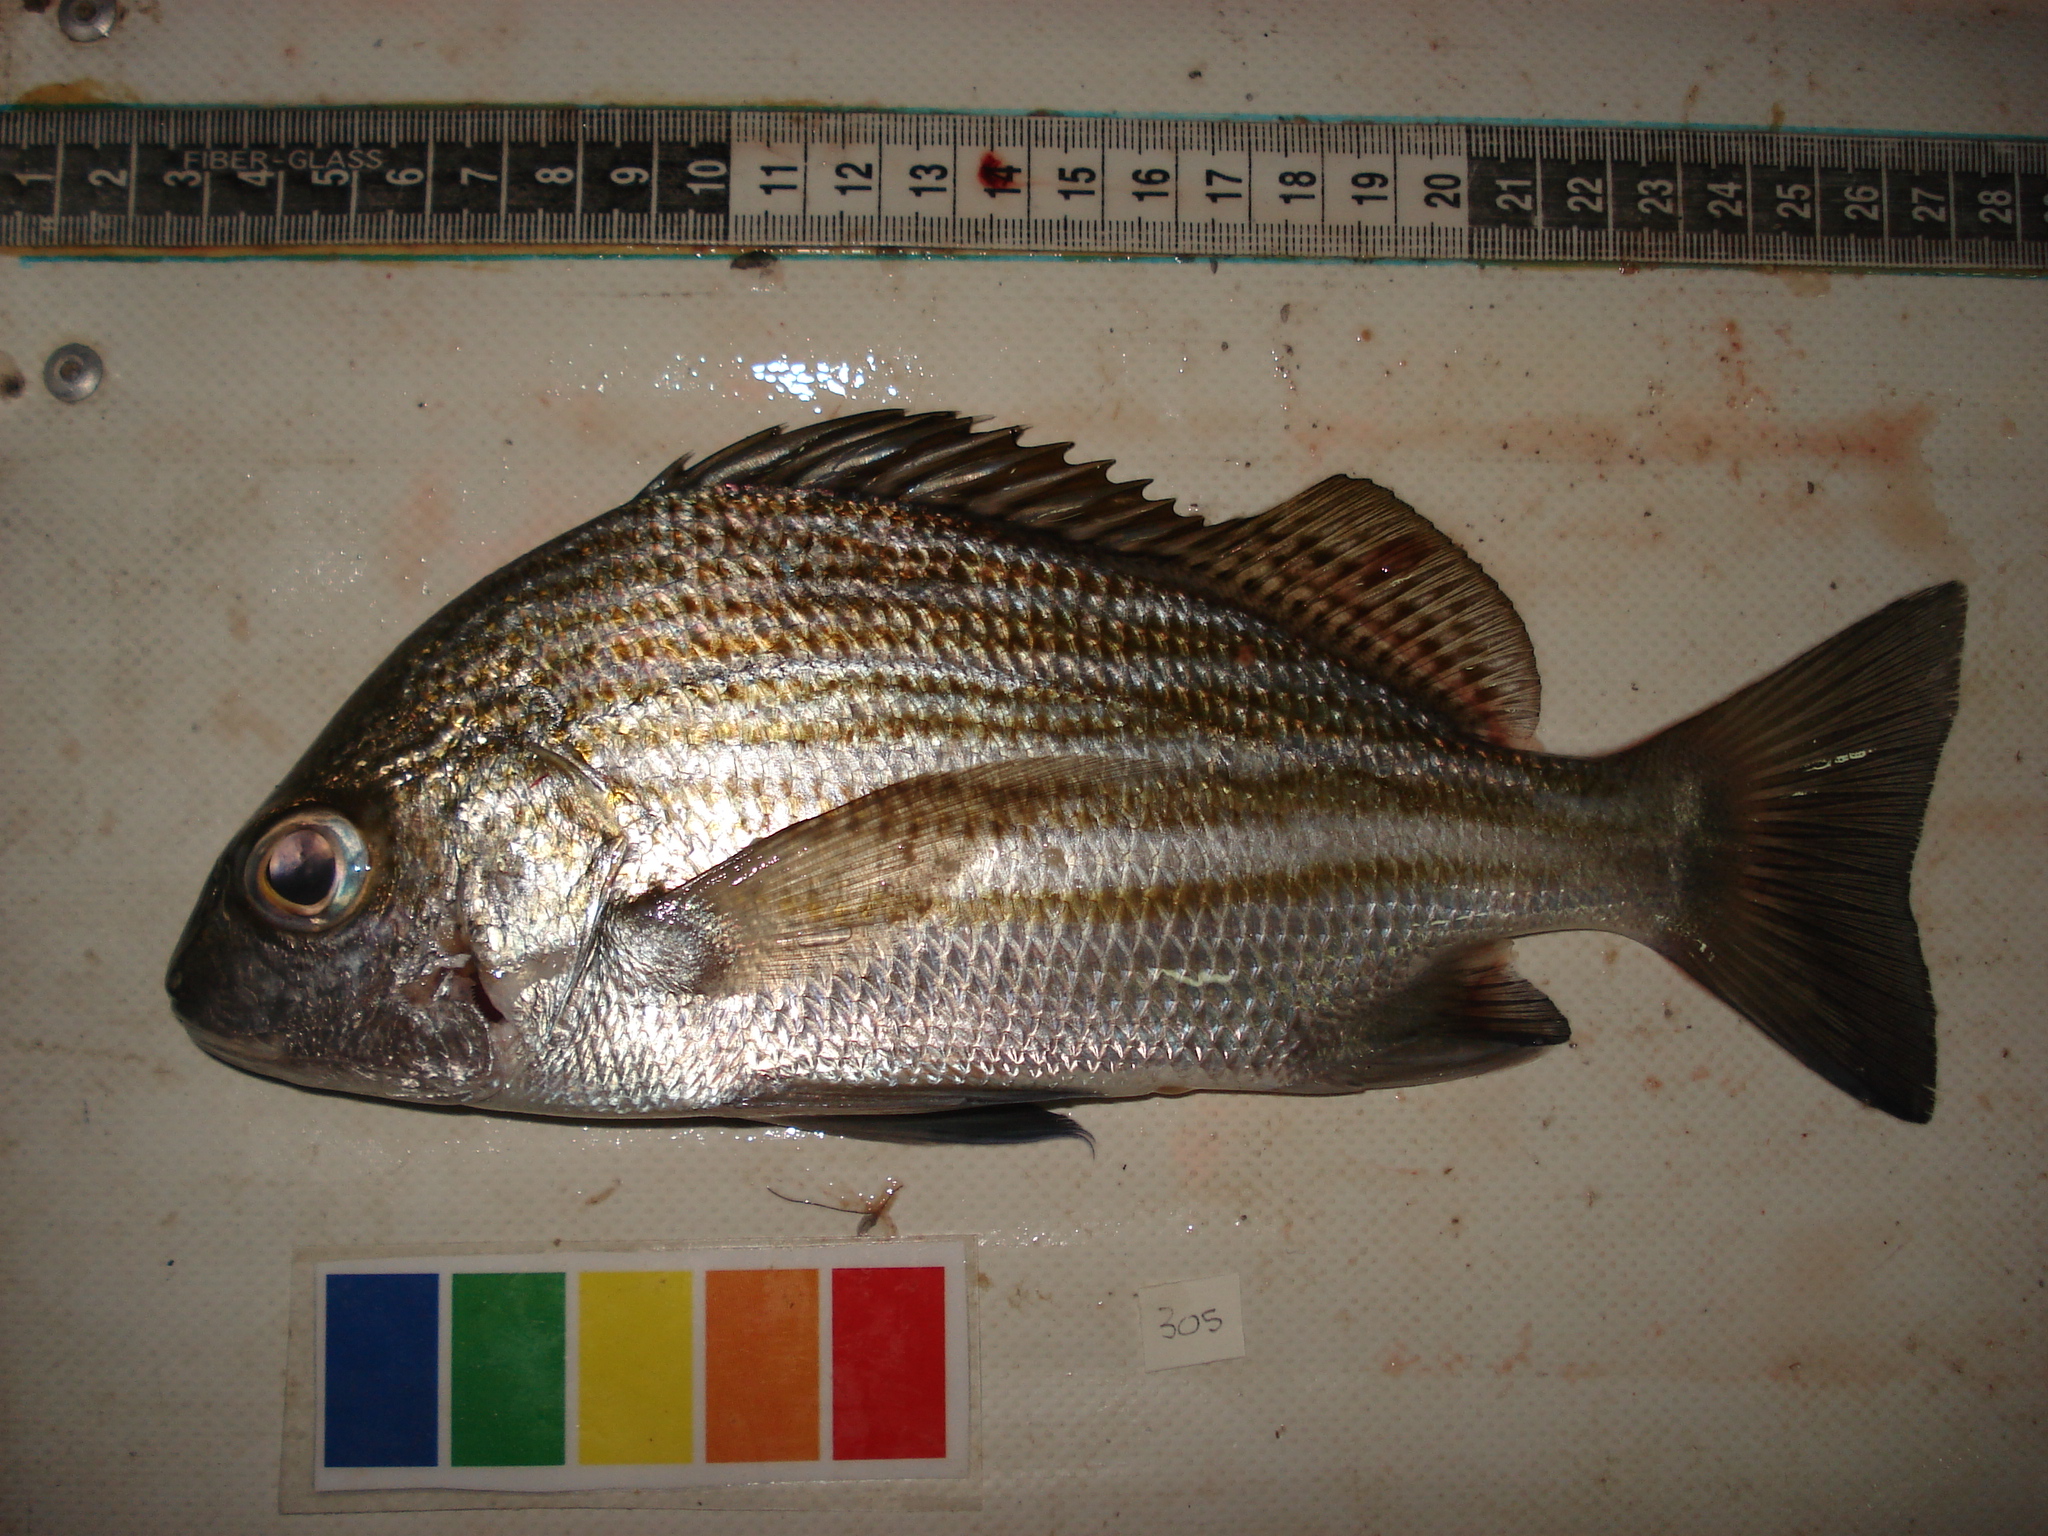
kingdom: Animalia
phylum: Chordata
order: Perciformes
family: Haemulidae
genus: Pomadasys
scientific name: Pomadasys furcatus
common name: Banded grunter
